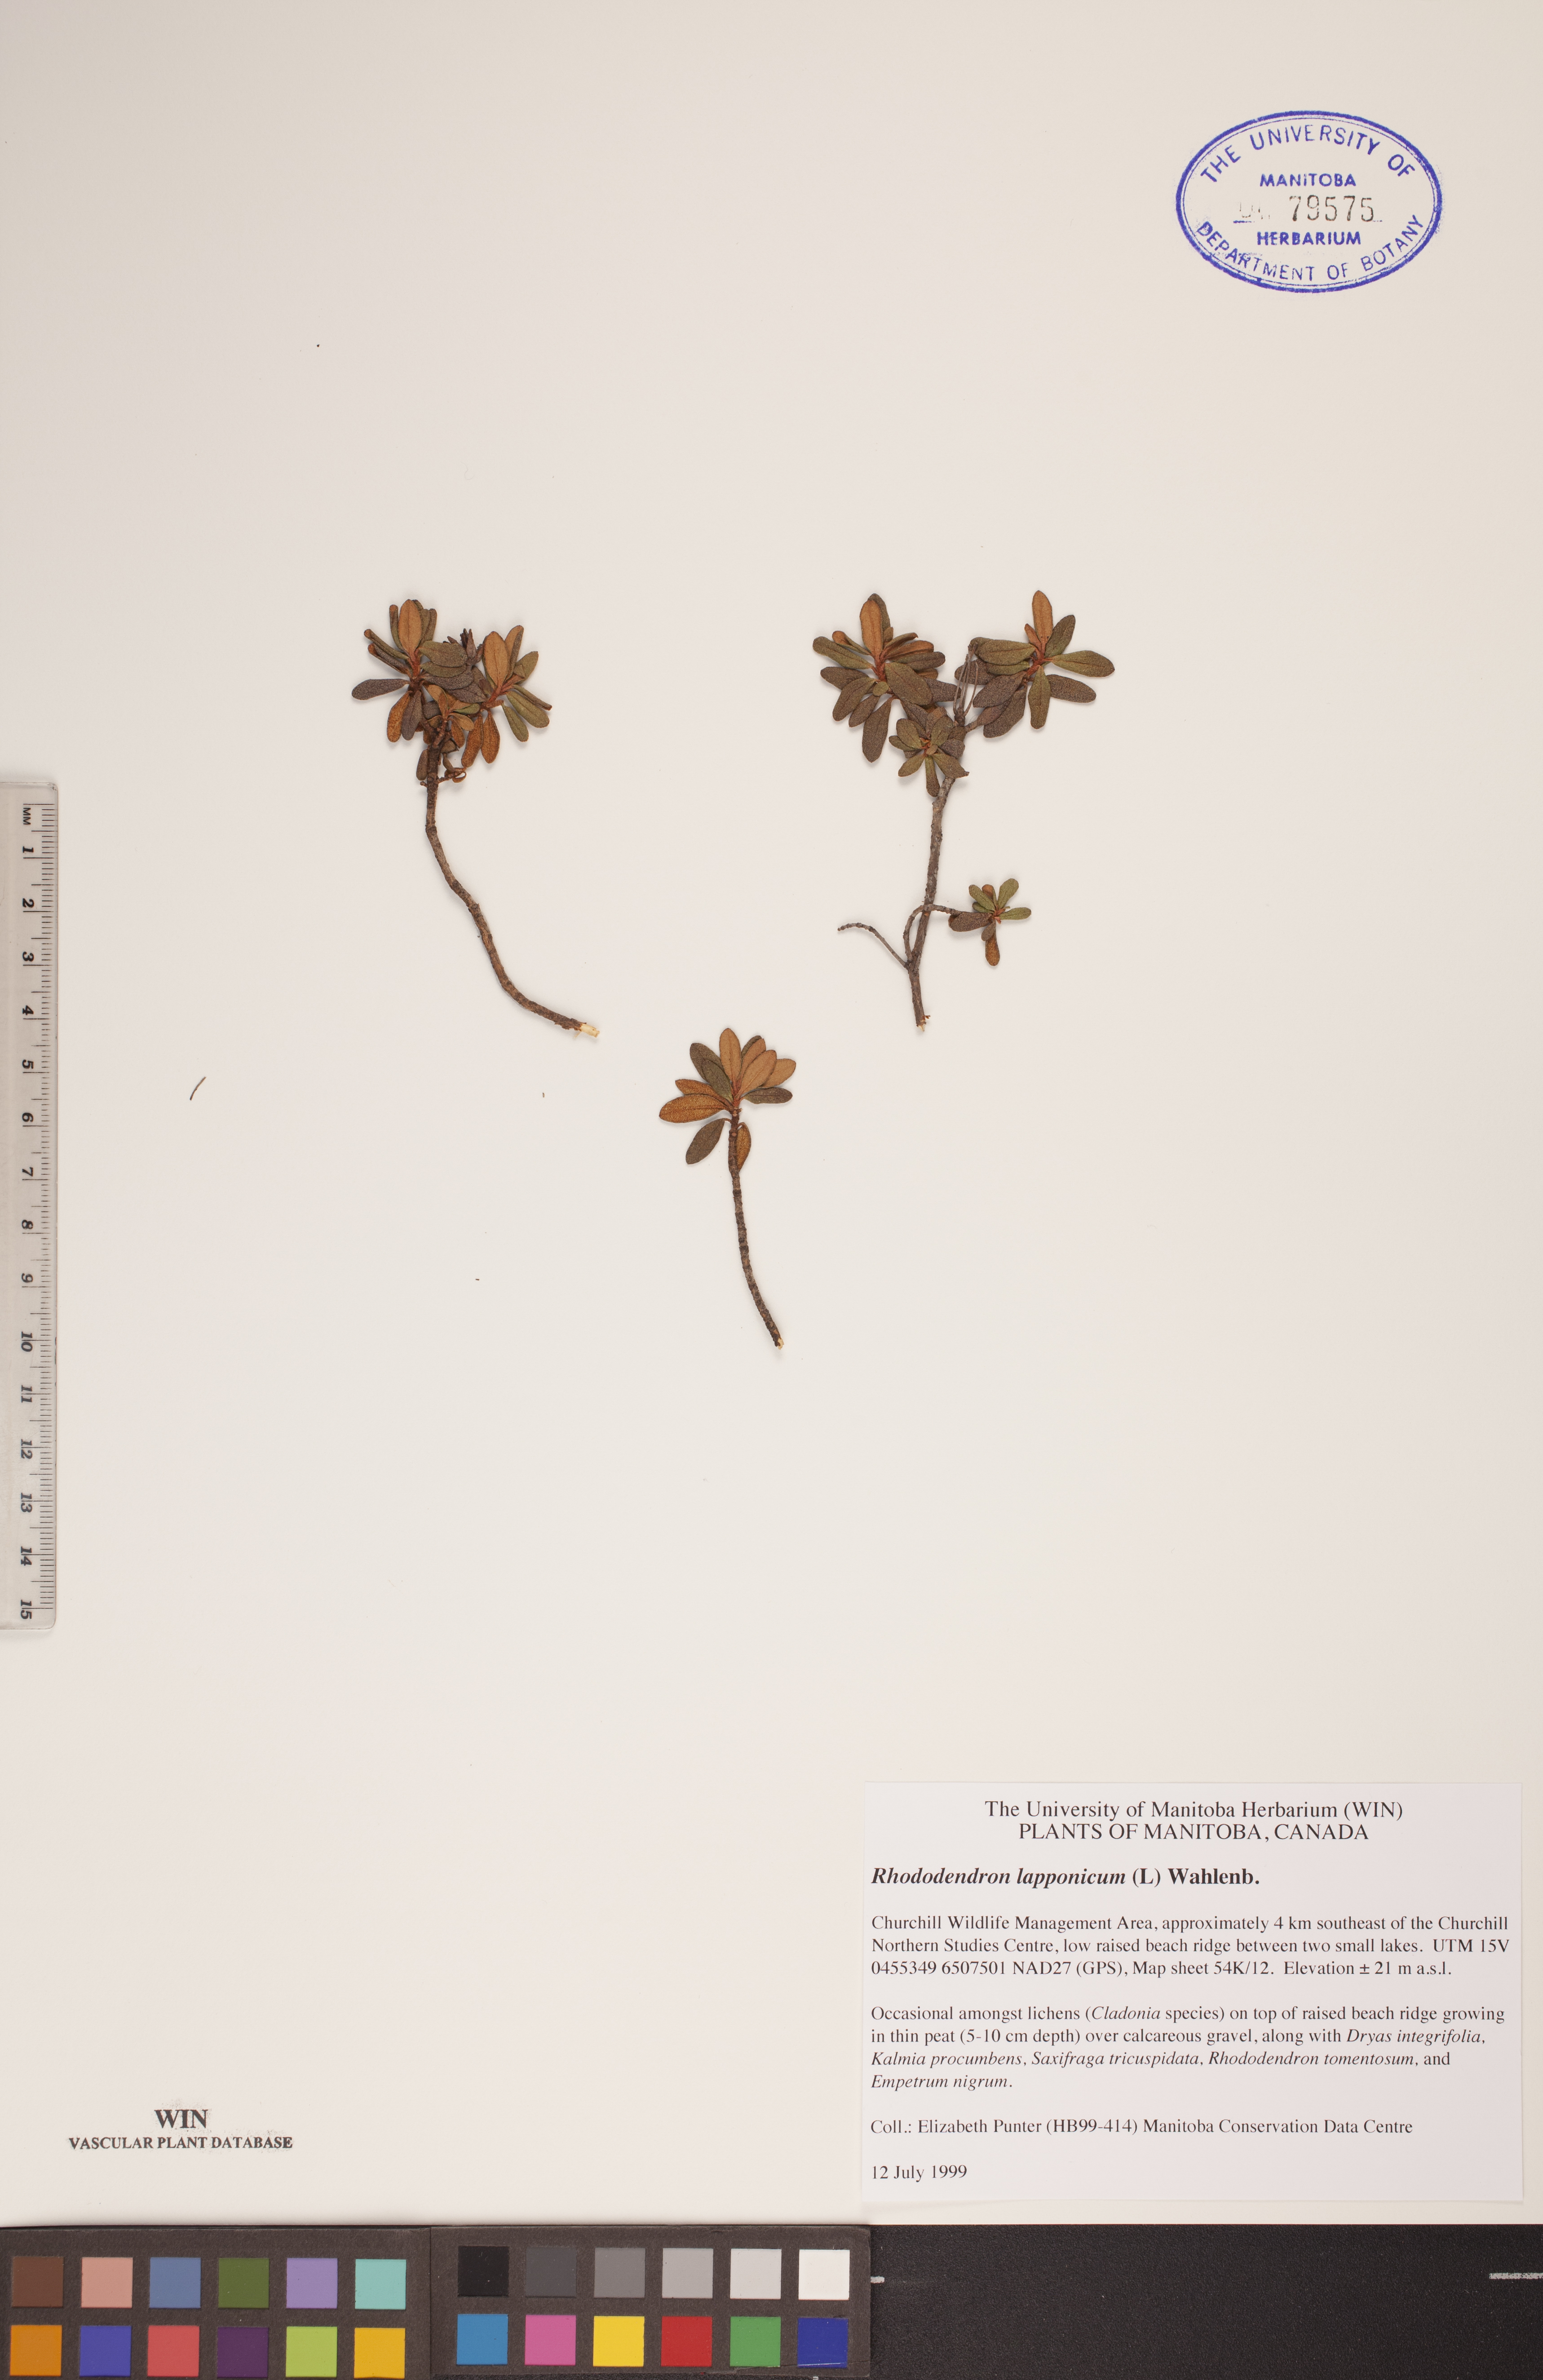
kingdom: Plantae
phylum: Tracheophyta
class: Magnoliopsida
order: Ericales
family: Ericaceae
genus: Rhododendron
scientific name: Rhododendron lapponicum
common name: Lapland rhododendron
